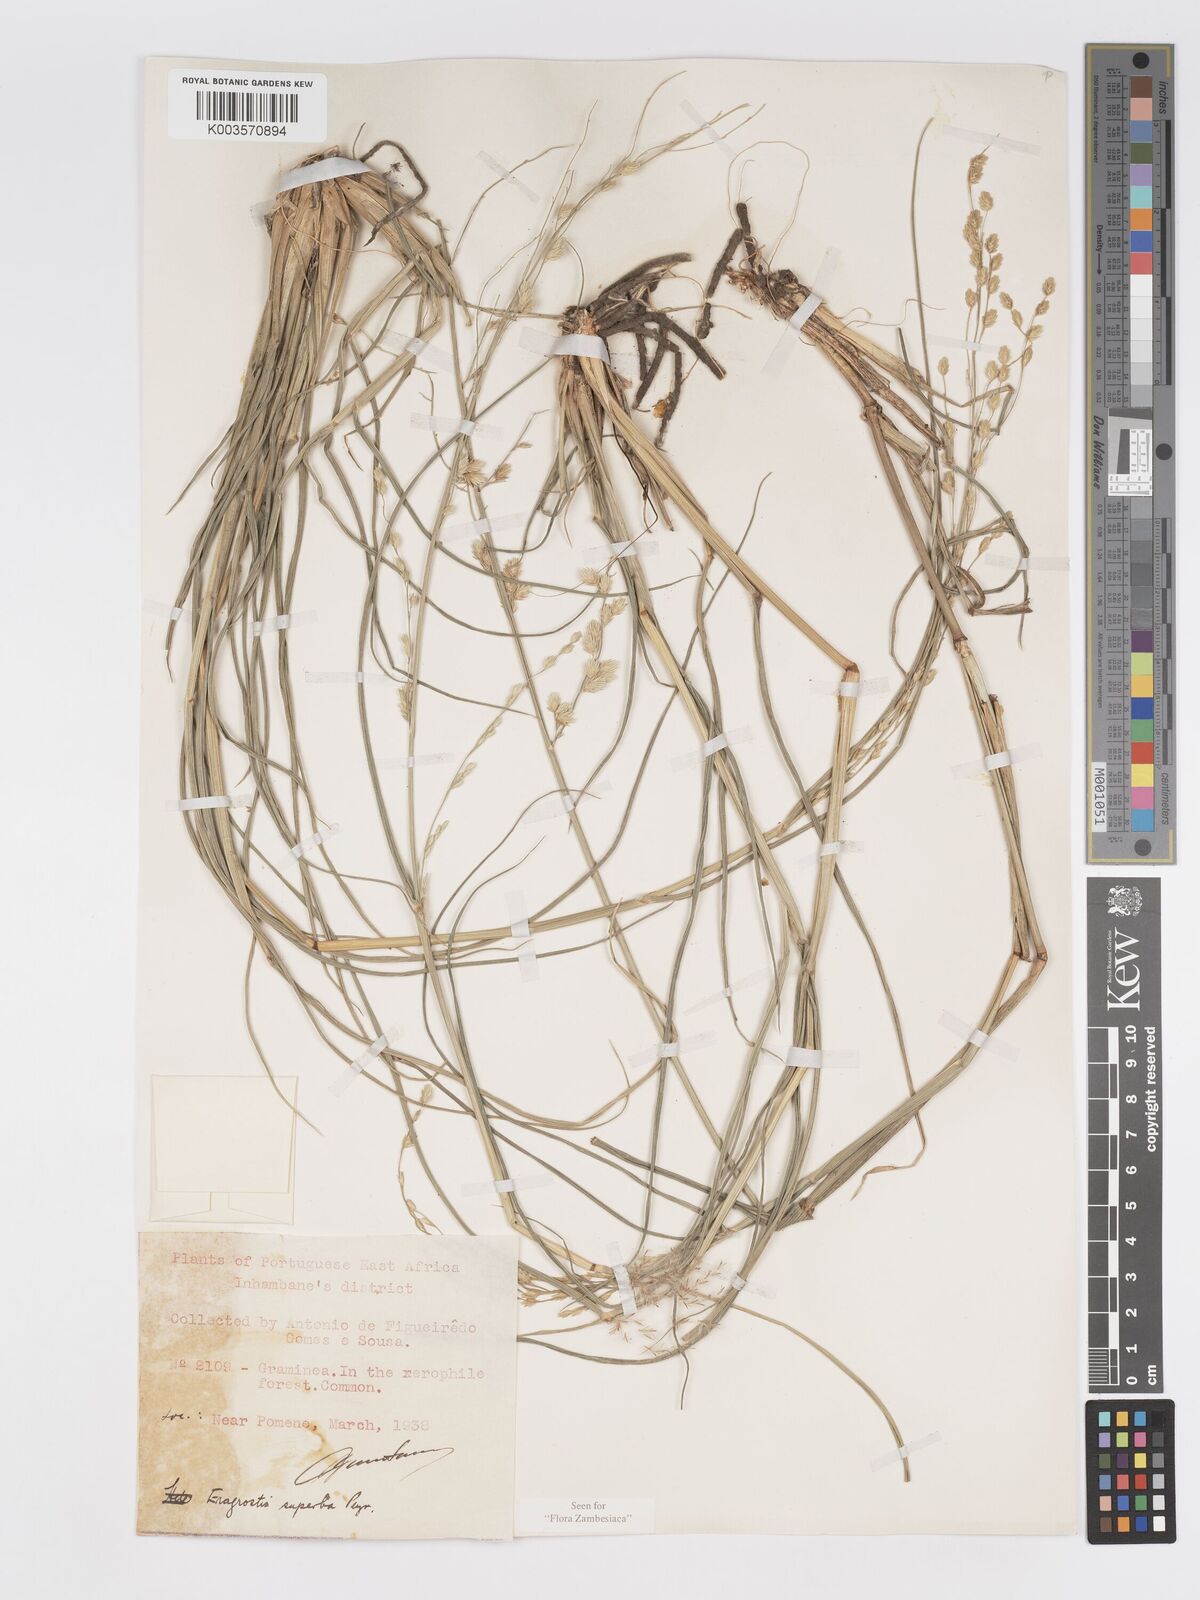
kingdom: Plantae
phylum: Tracheophyta
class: Liliopsida
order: Poales
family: Poaceae
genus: Eragrostis
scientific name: Eragrostis superba
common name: Wilman lovegrass
